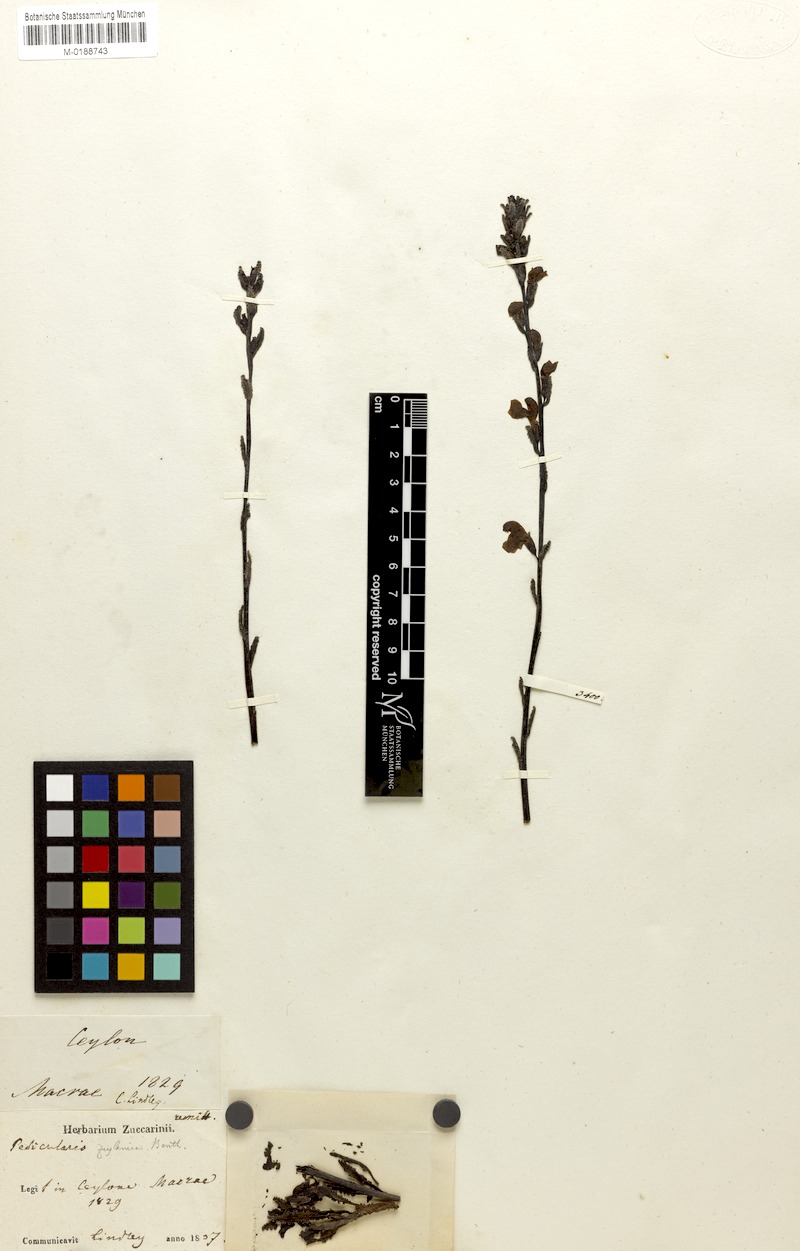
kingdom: Plantae
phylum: Tracheophyta
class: Magnoliopsida
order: Lamiales
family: Orobanchaceae
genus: Pedicularis
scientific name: Pedicularis zeylanica
